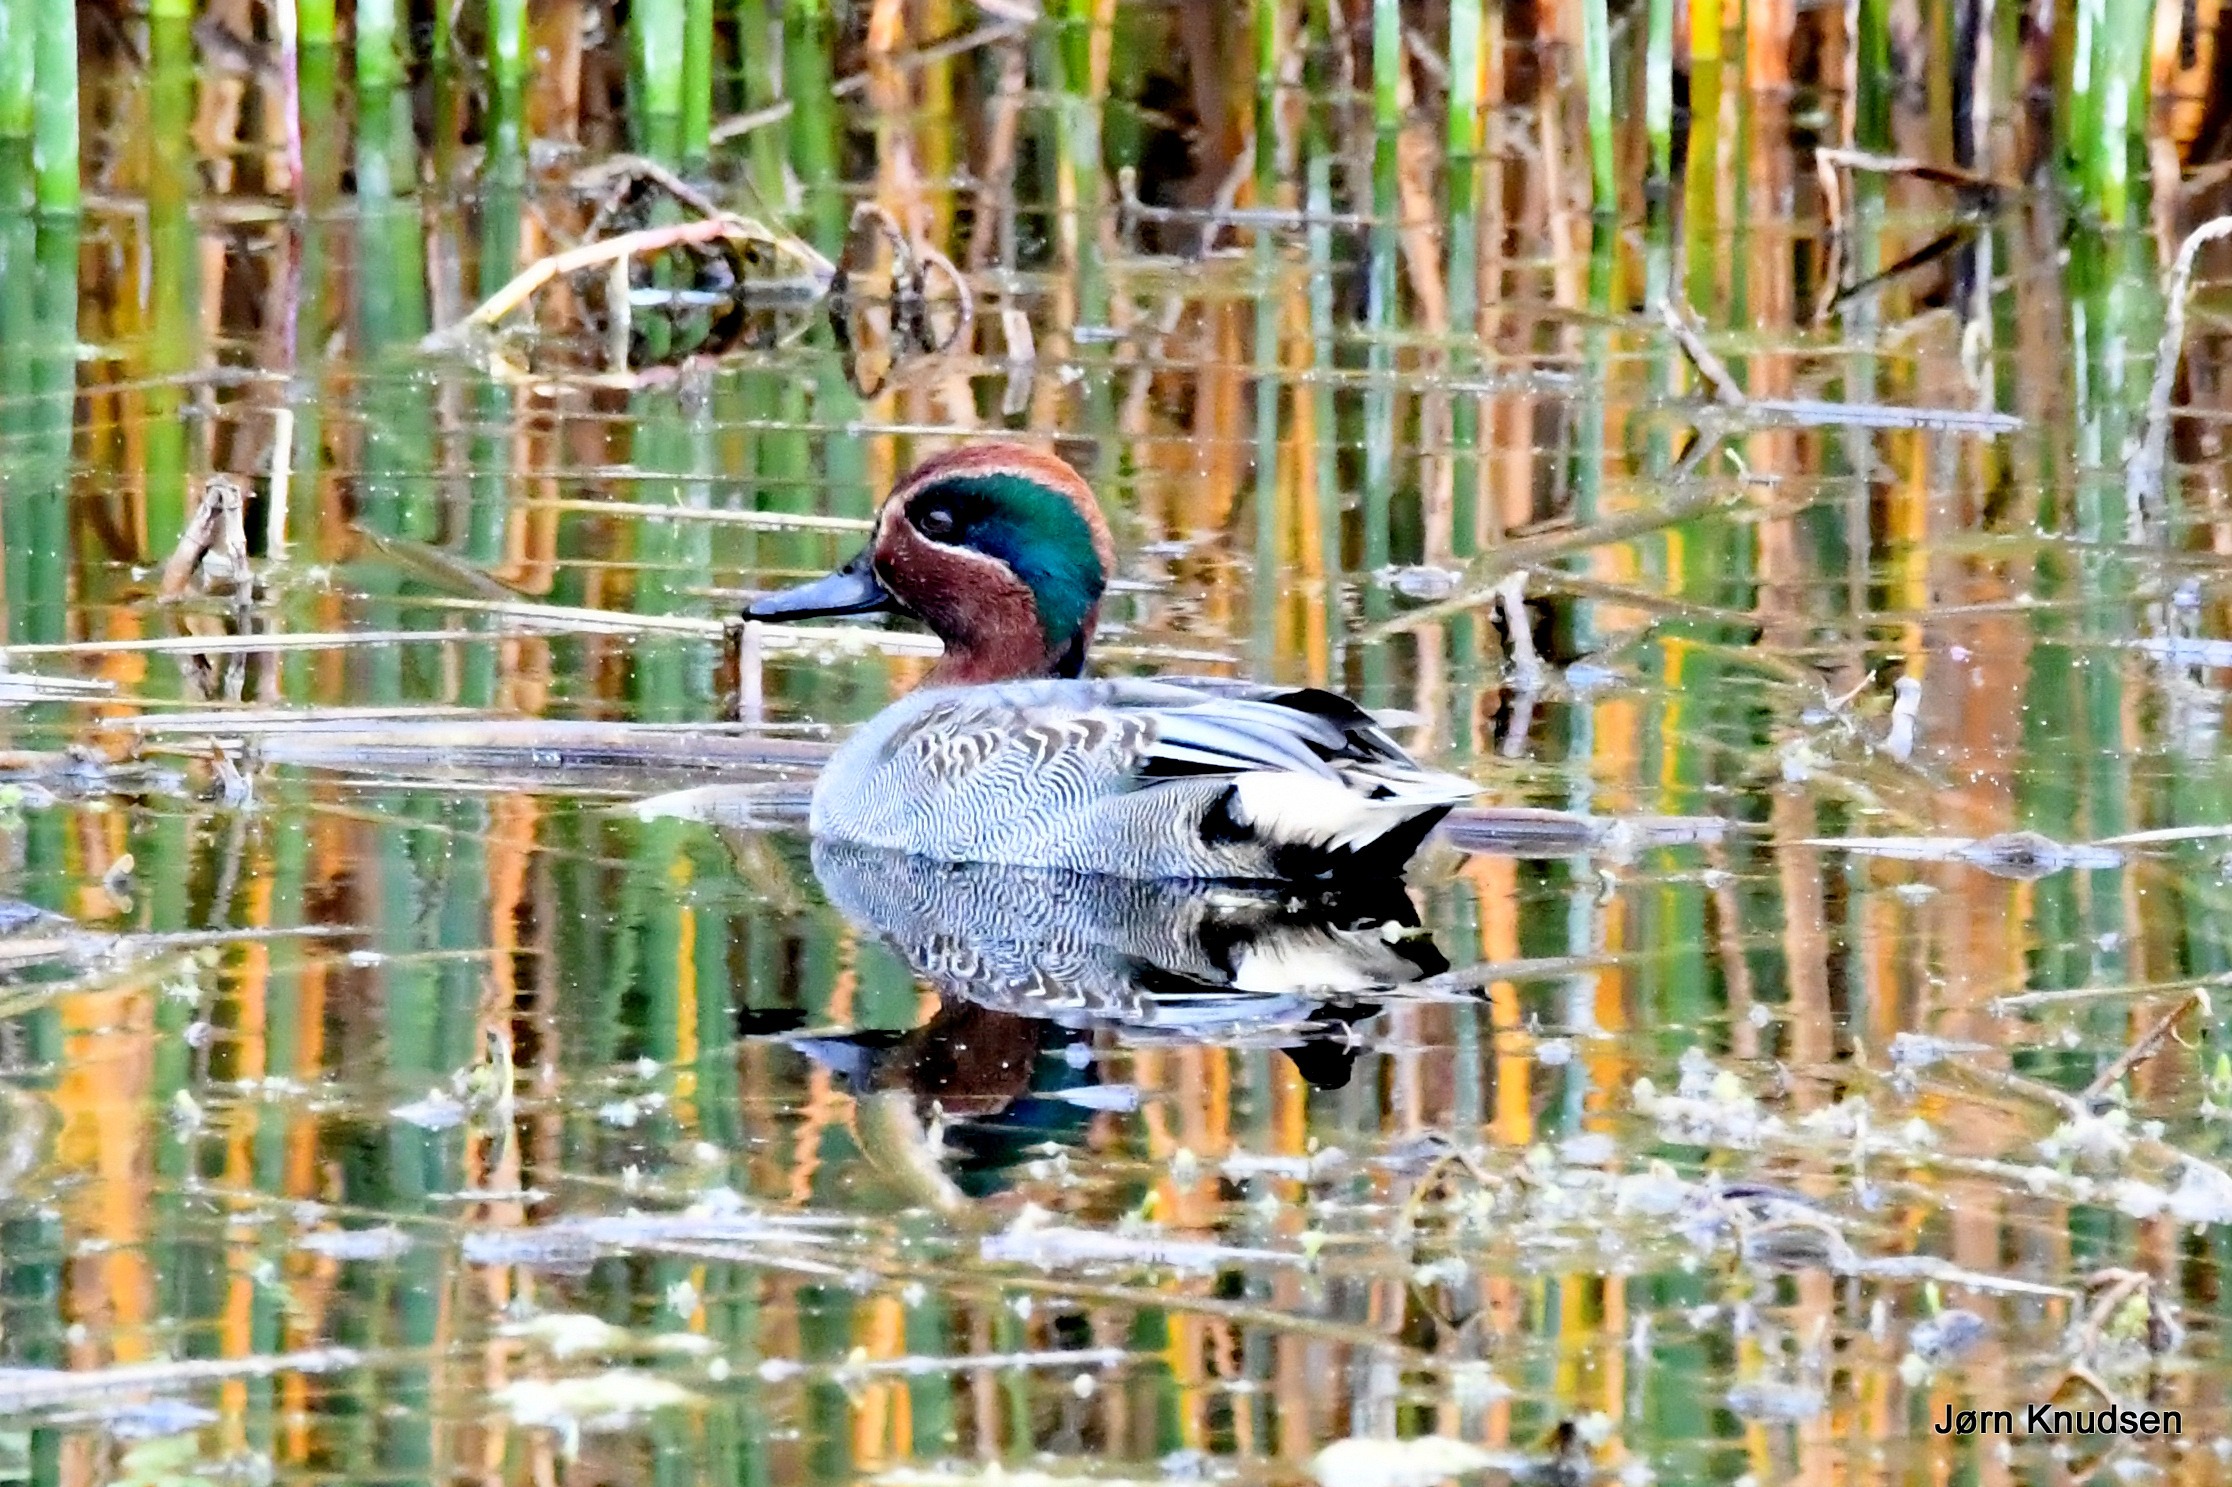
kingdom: Animalia
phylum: Chordata
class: Aves
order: Anseriformes
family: Anatidae
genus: Anas
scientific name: Anas crecca
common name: Krikand
